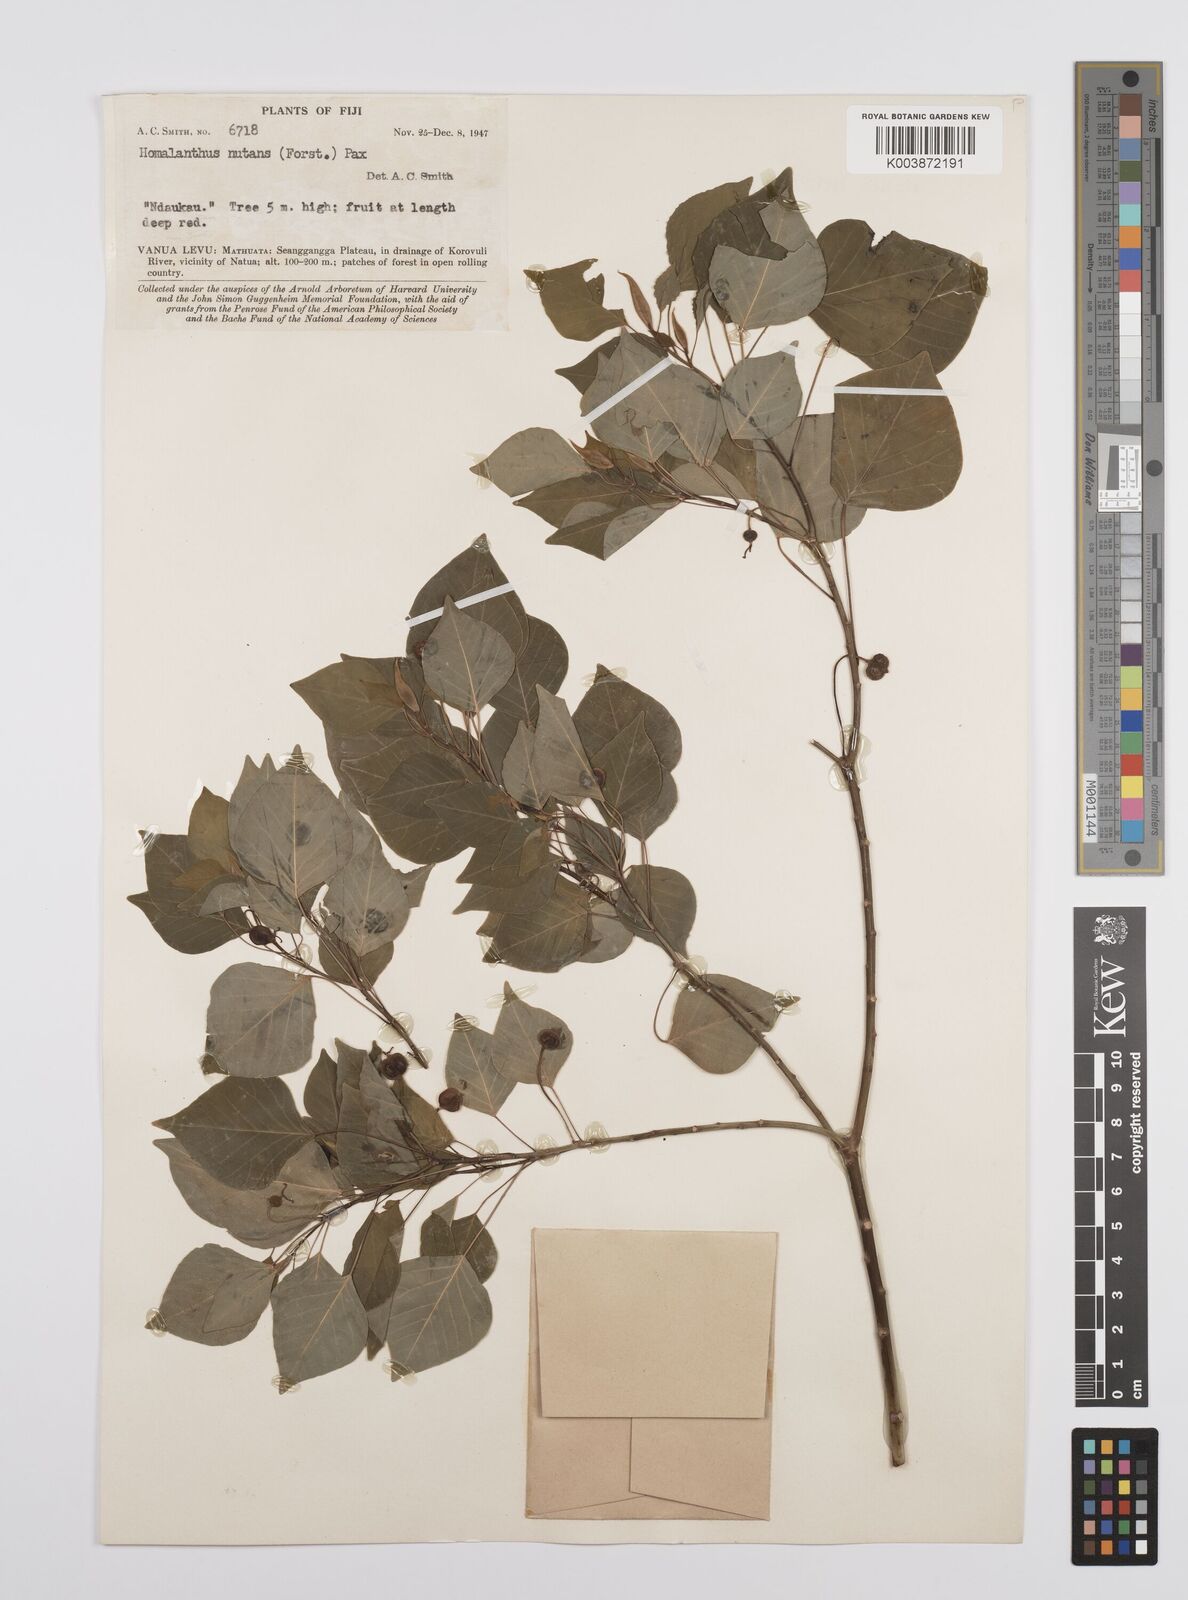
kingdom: Plantae
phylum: Tracheophyta
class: Magnoliopsida
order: Malpighiales
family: Euphorbiaceae
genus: Homalanthus
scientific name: Homalanthus nutans
